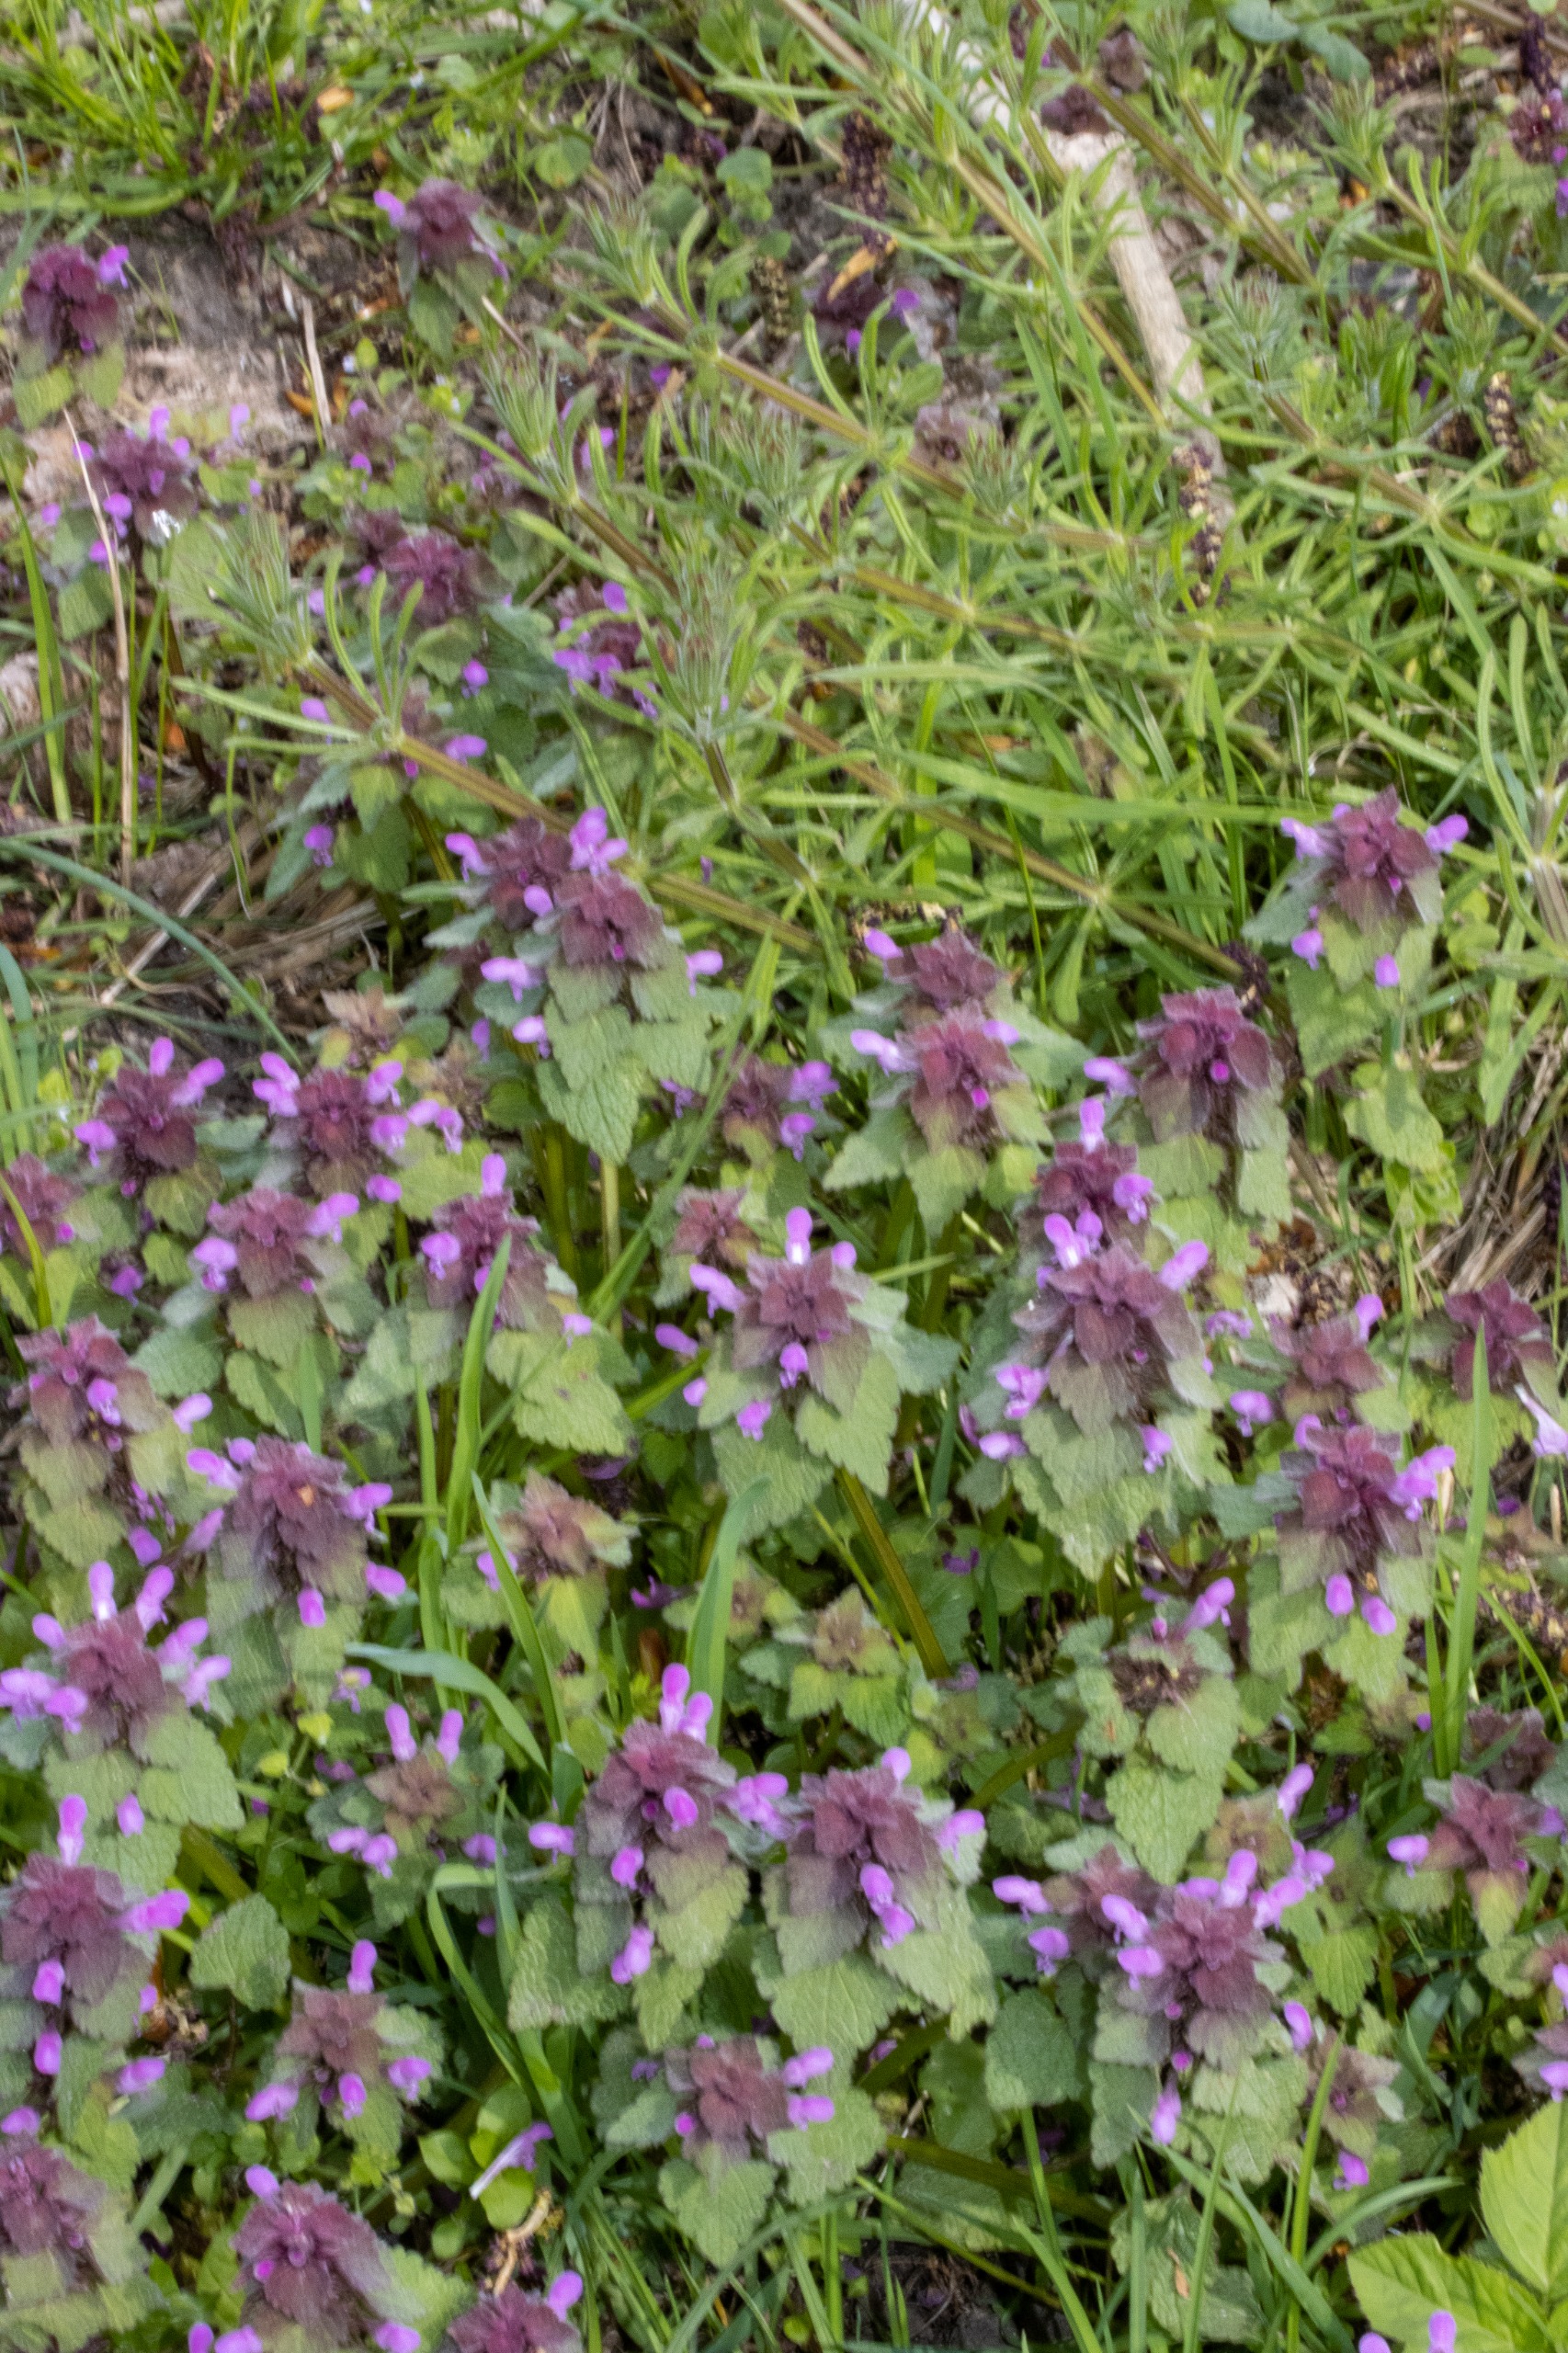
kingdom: Plantae
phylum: Tracheophyta
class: Magnoliopsida
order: Lamiales
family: Lamiaceae
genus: Lamium
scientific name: Lamium purpureum
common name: Rød tvetand
